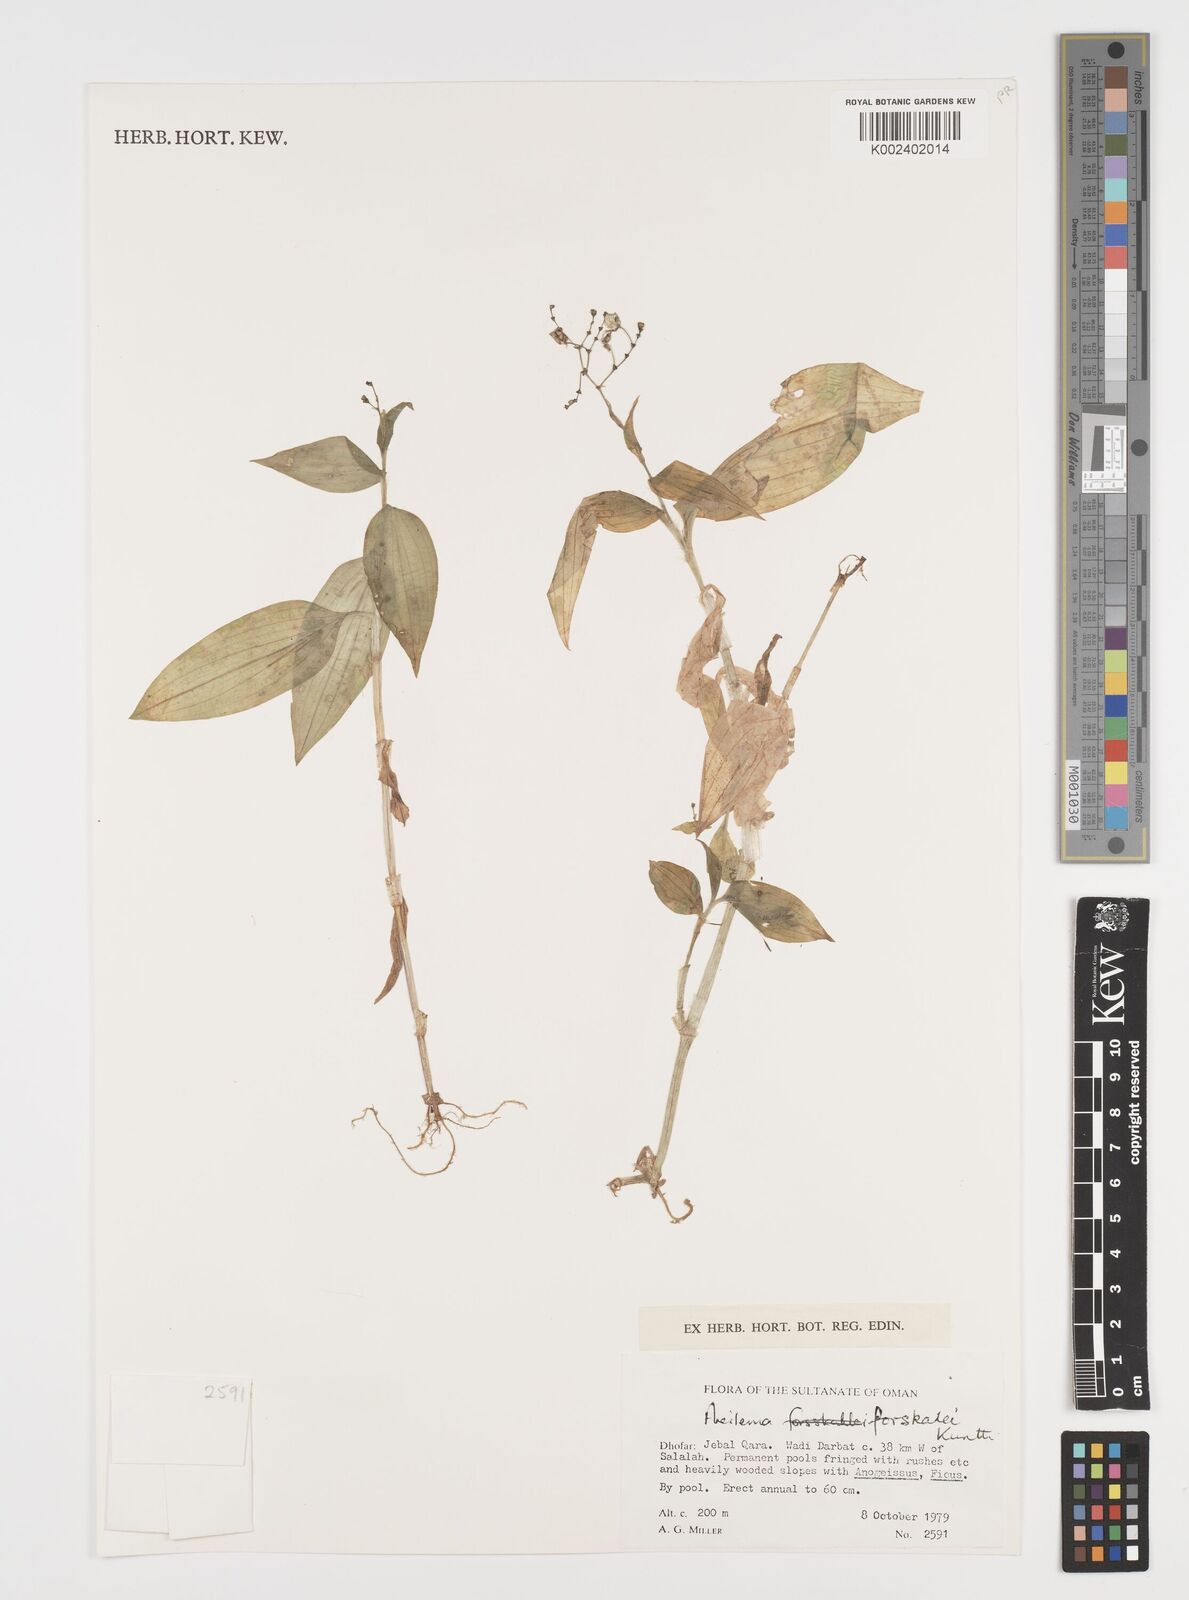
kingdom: Plantae
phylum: Tracheophyta
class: Liliopsida
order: Commelinales
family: Commelinaceae
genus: Aneilema
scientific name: Aneilema forskalii
